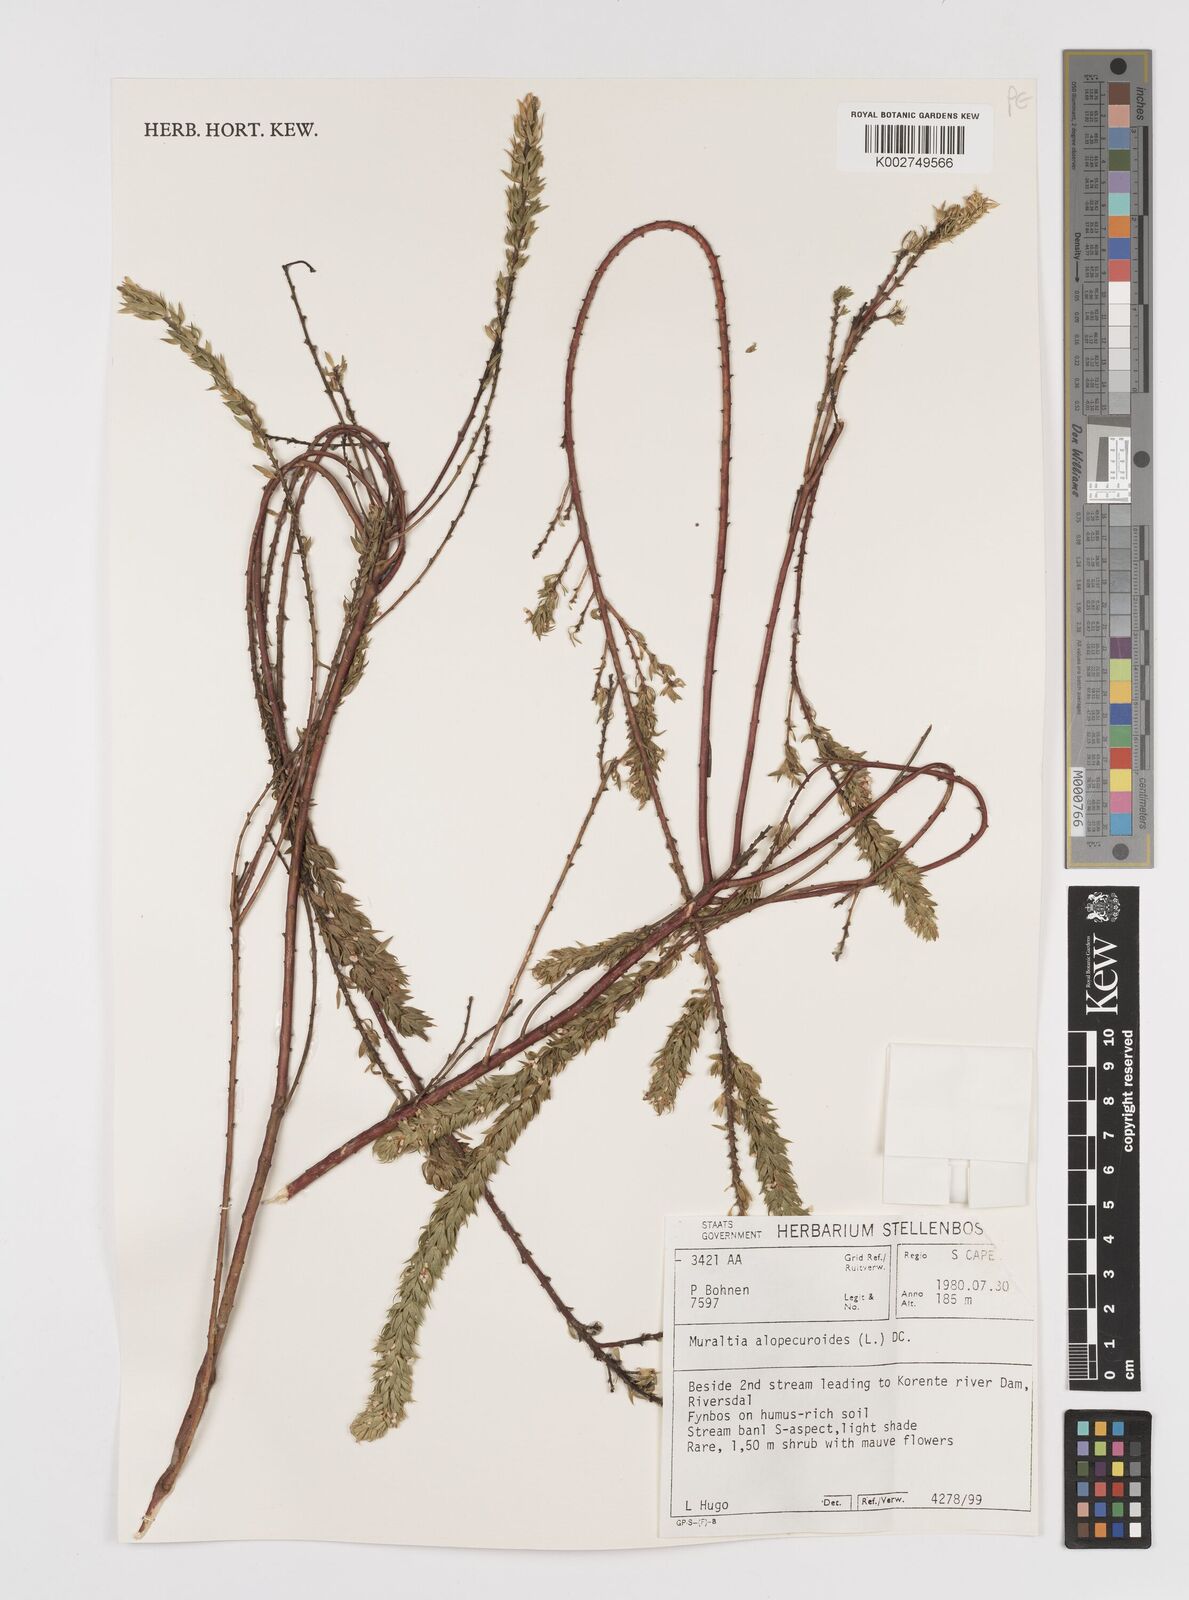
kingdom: Plantae
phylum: Tracheophyta
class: Magnoliopsida
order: Fabales
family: Polygalaceae
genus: Muraltia
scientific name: Muraltia alopecuroides
